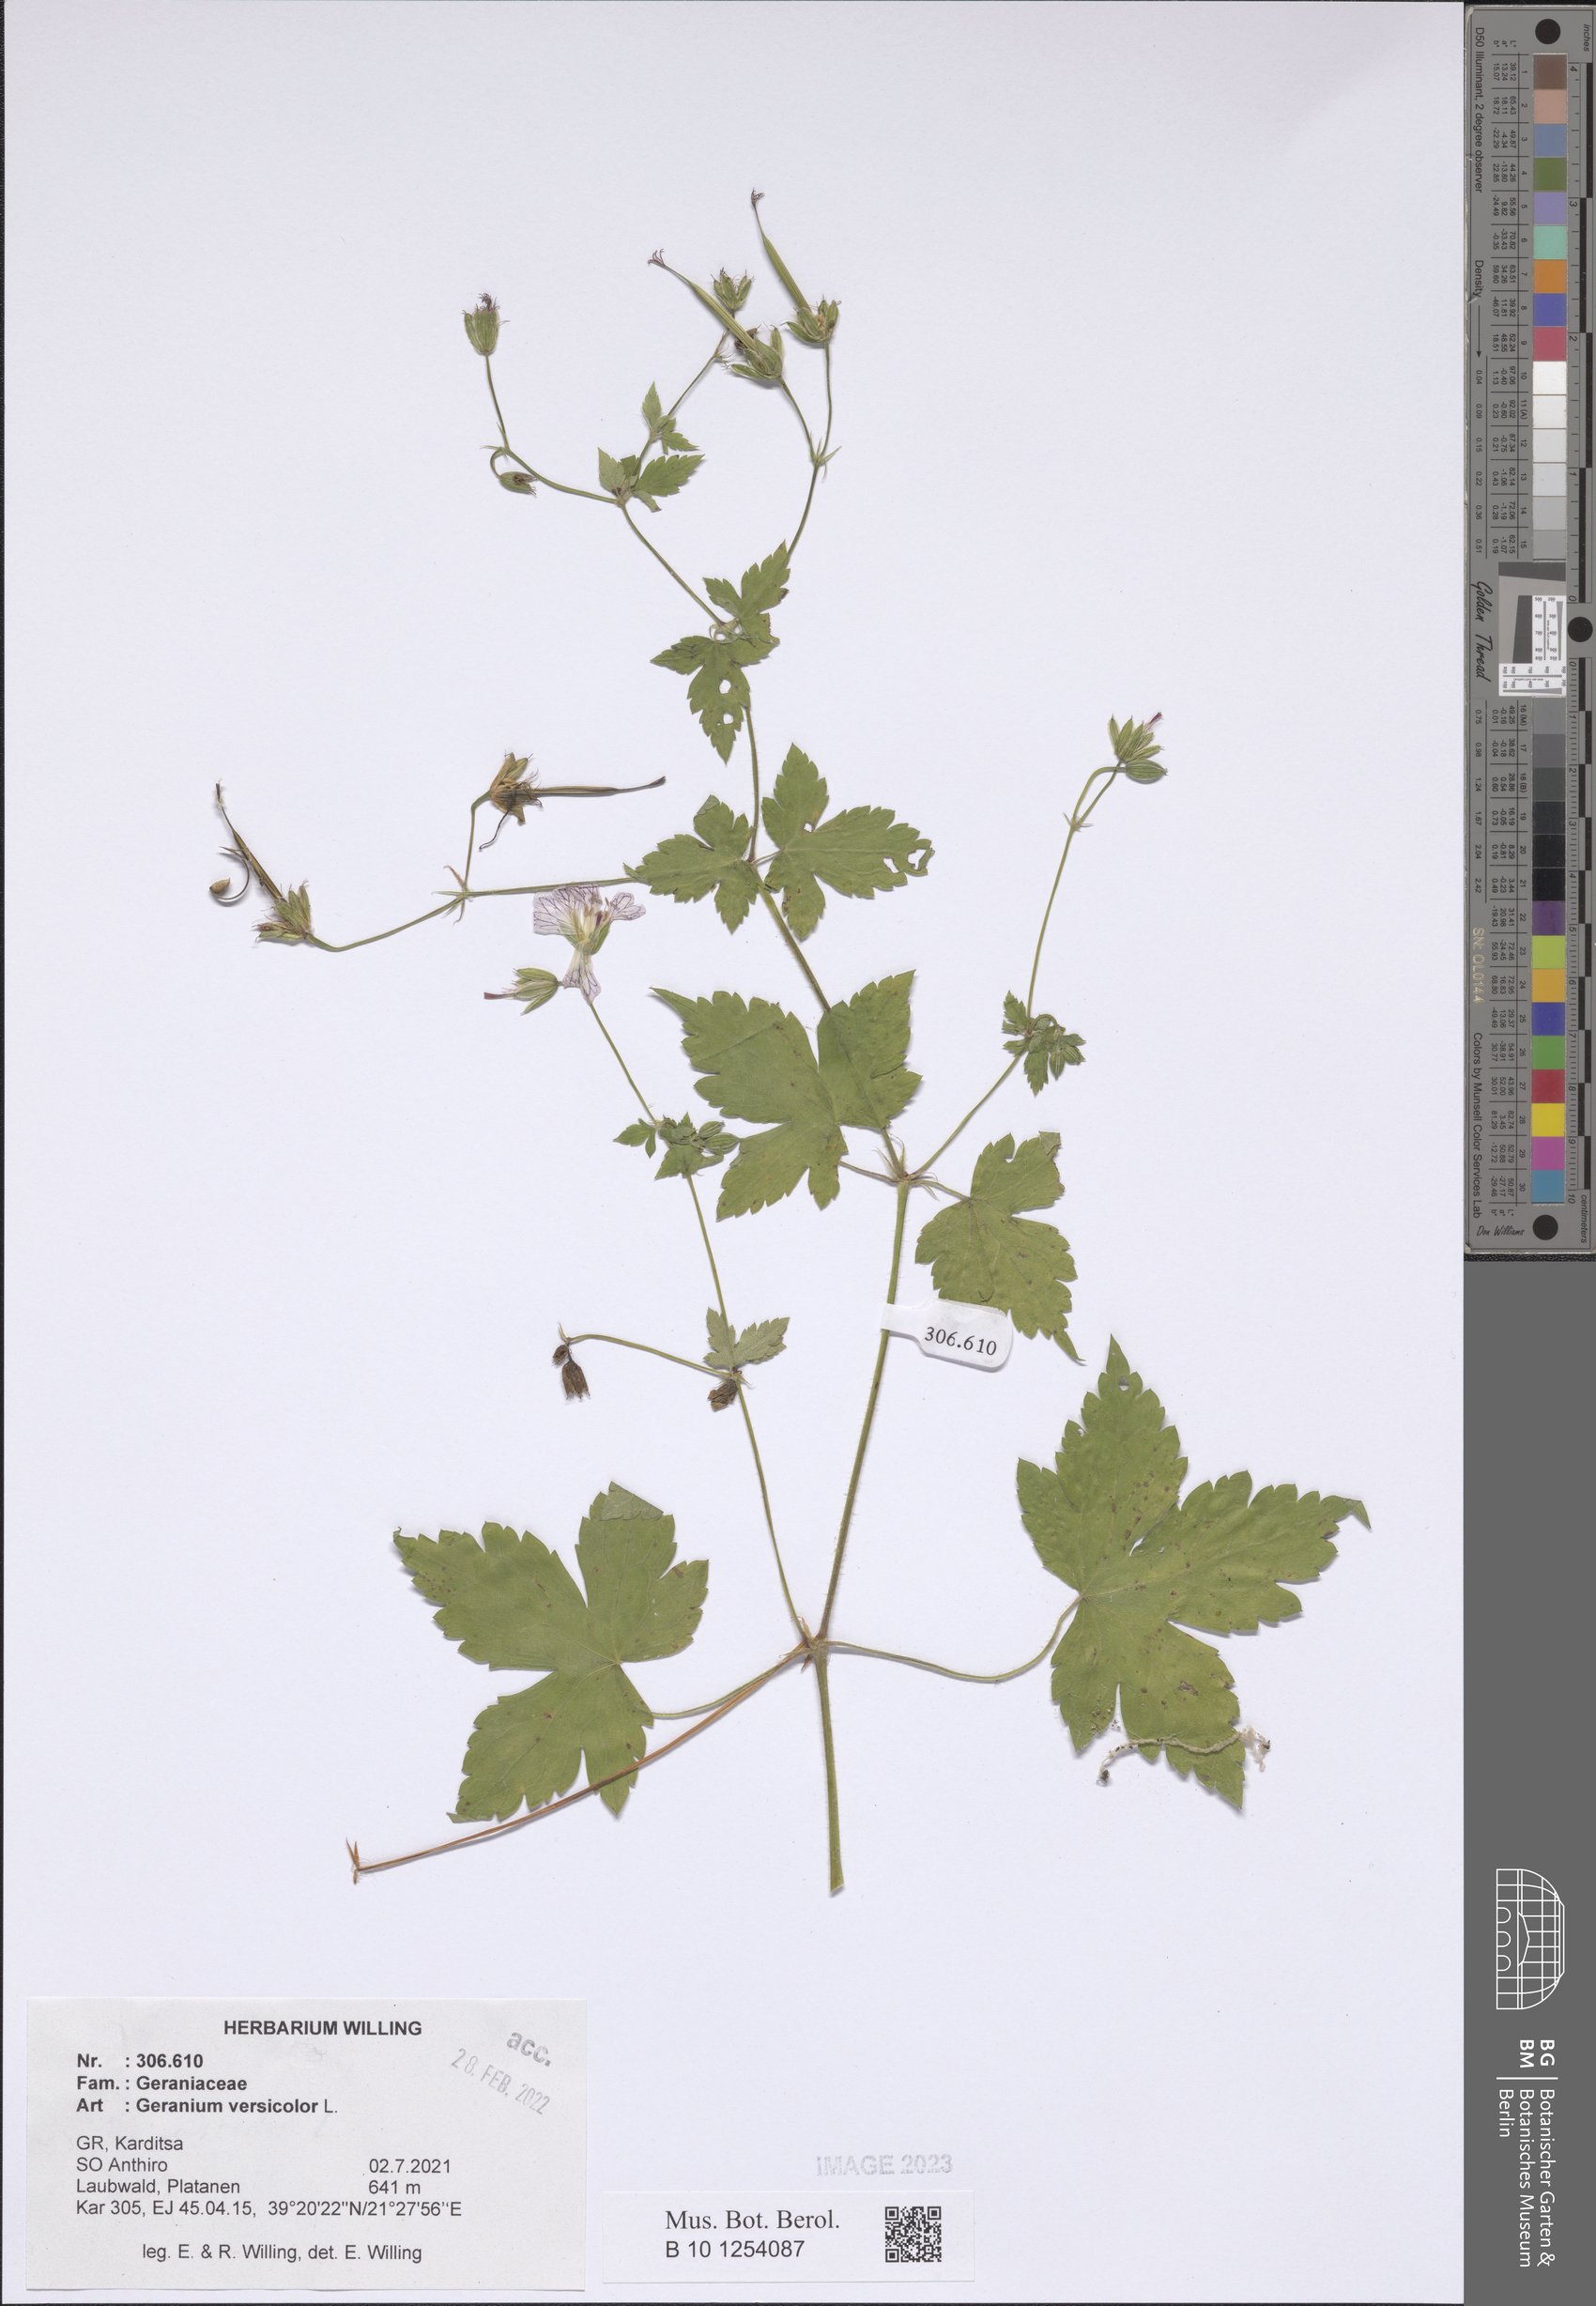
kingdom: Plantae
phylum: Tracheophyta
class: Magnoliopsida
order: Geraniales
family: Geraniaceae
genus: Geranium
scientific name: Geranium versicolor
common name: Pencilled crane's-bill
